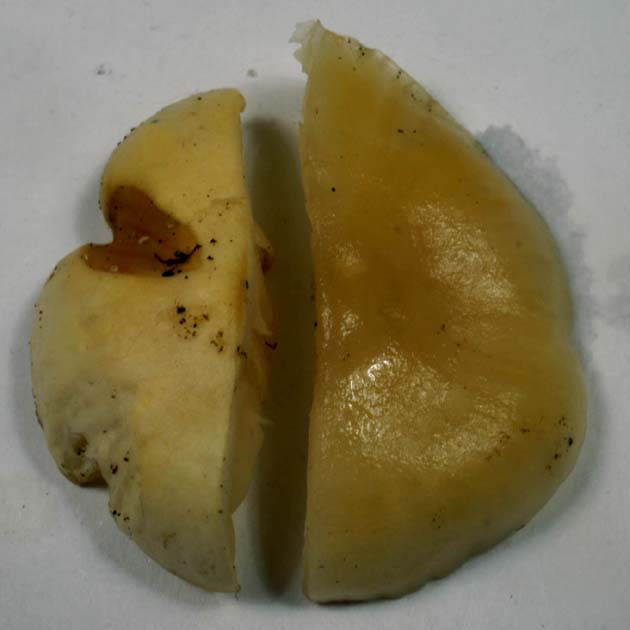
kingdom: Fungi
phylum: Basidiomycota
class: Agaricomycetes
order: Agaricales
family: Hygrophoraceae
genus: Cuphophyllus
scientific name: Cuphophyllus virgineus
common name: snehvid vokshat
